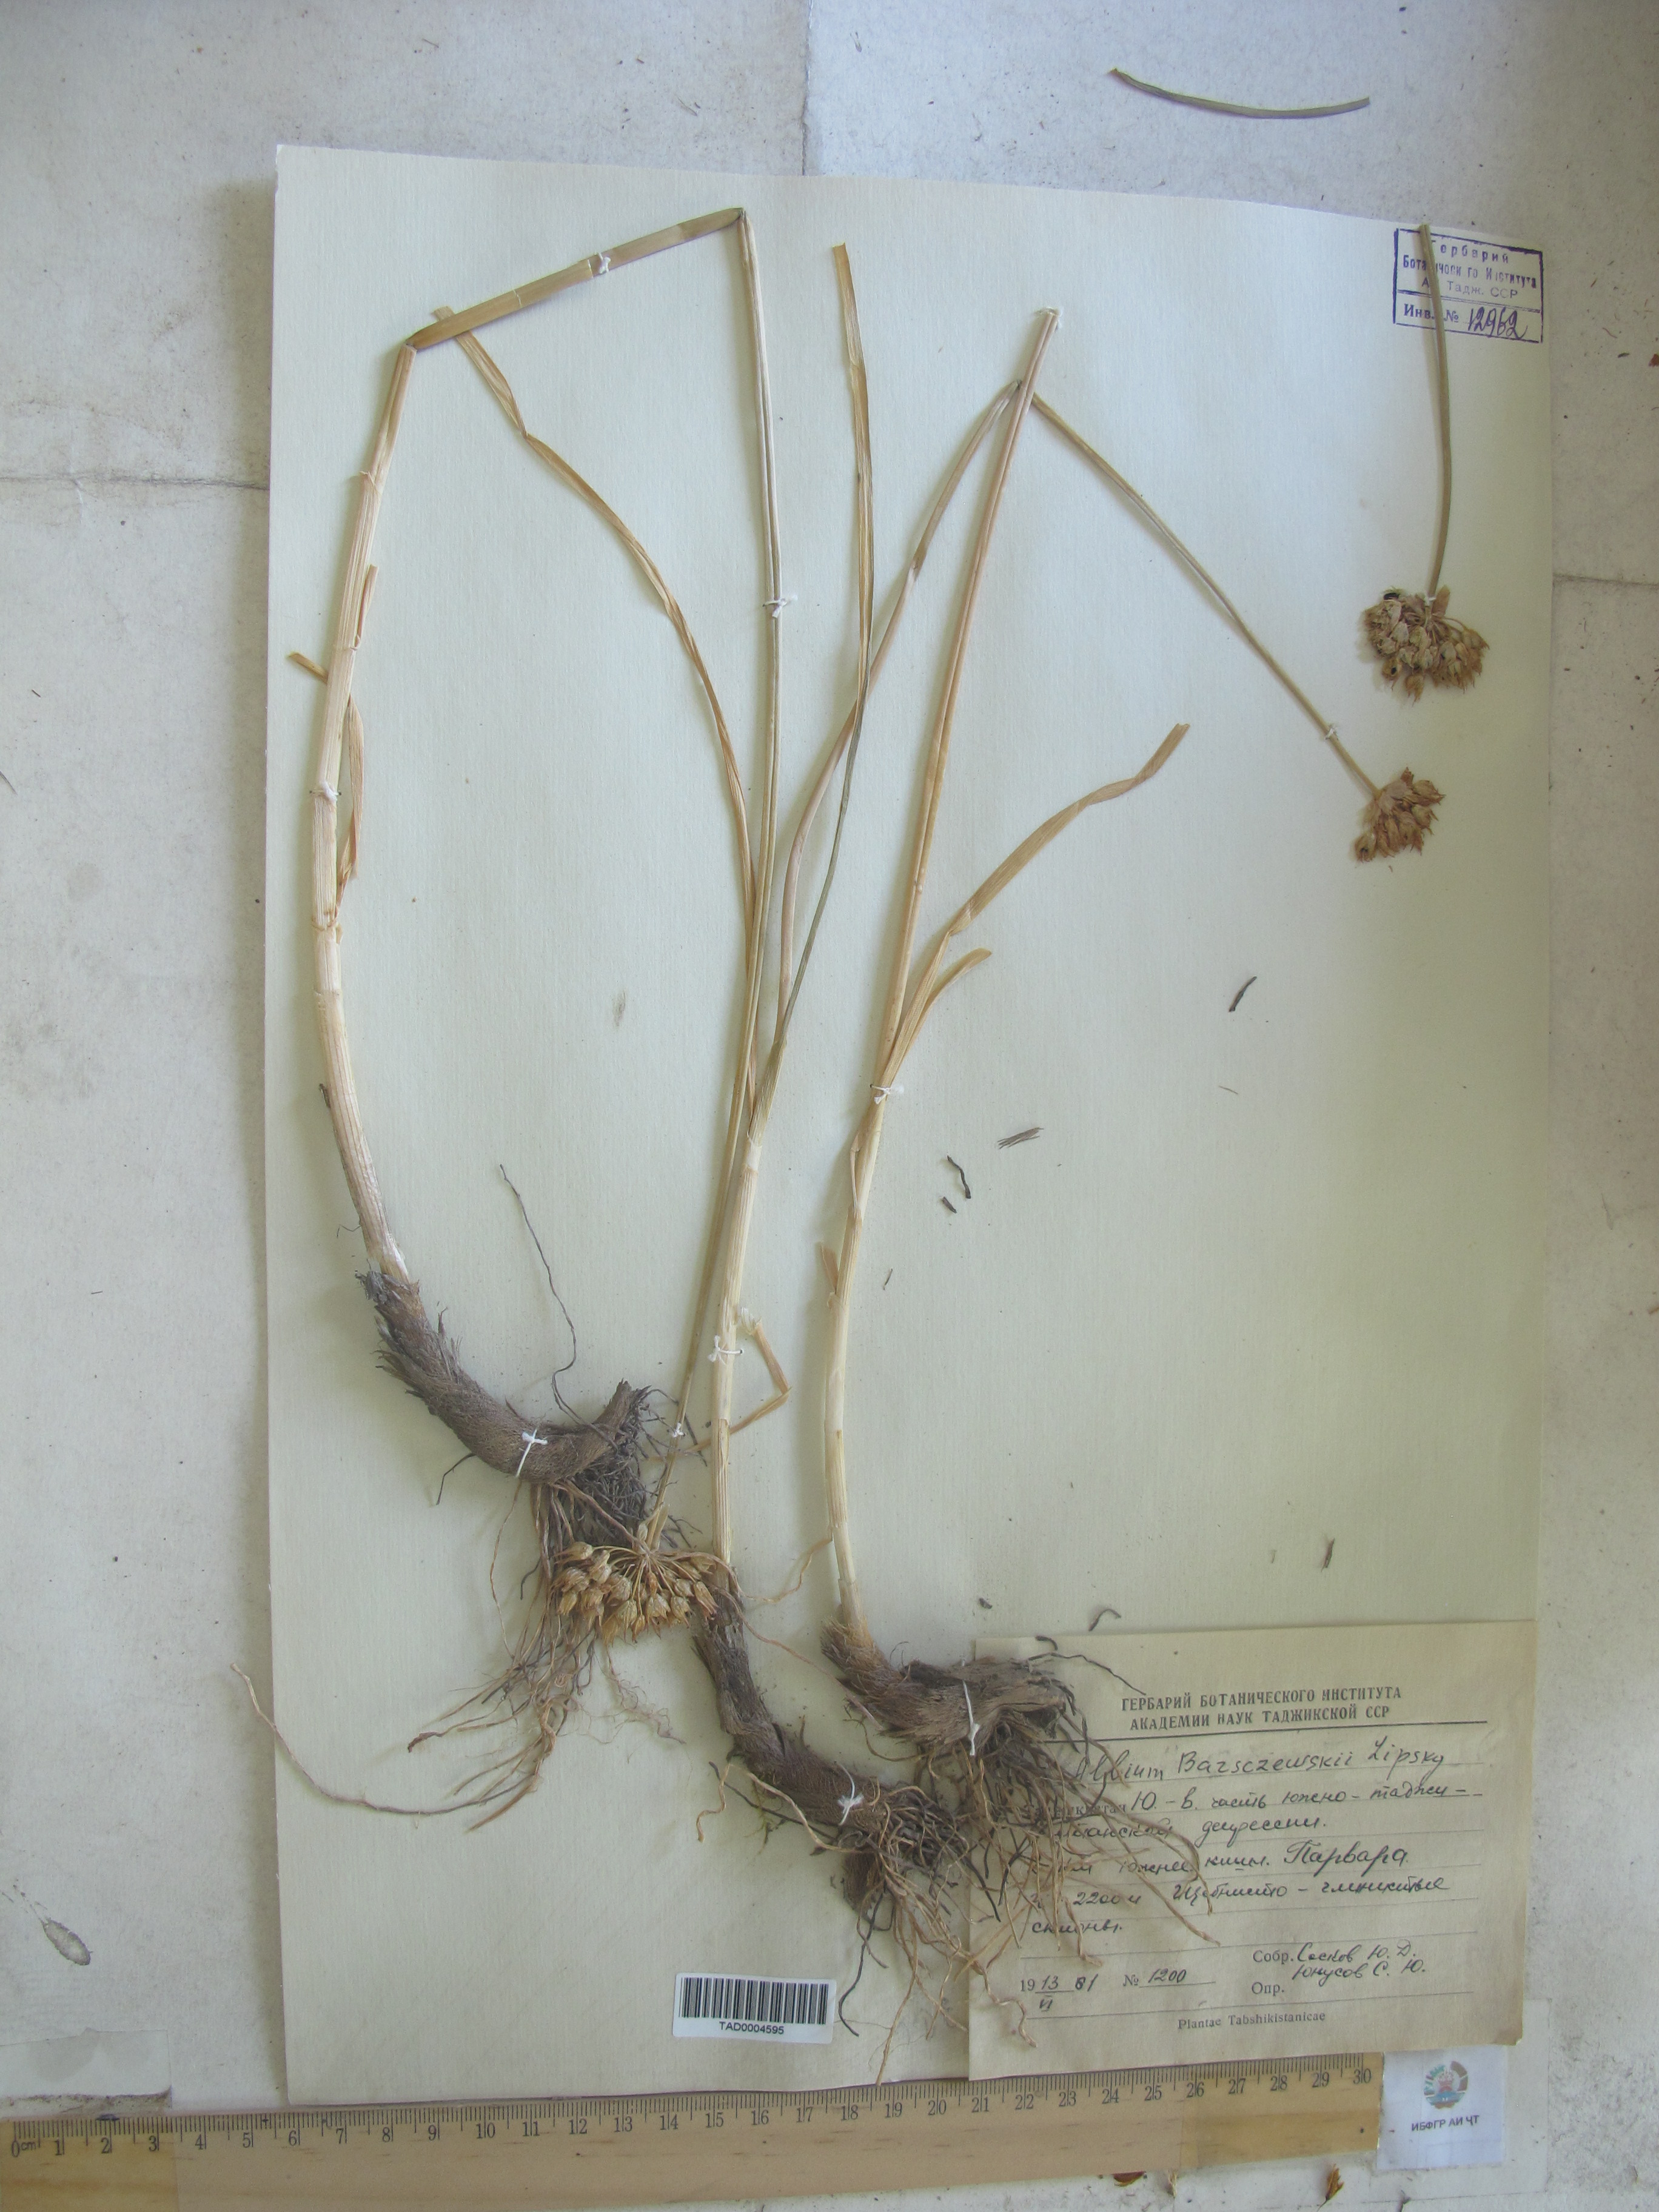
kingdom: Plantae
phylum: Tracheophyta
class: Liliopsida
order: Asparagales
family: Amaryllidaceae
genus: Allium
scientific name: Allium barsczewskii
